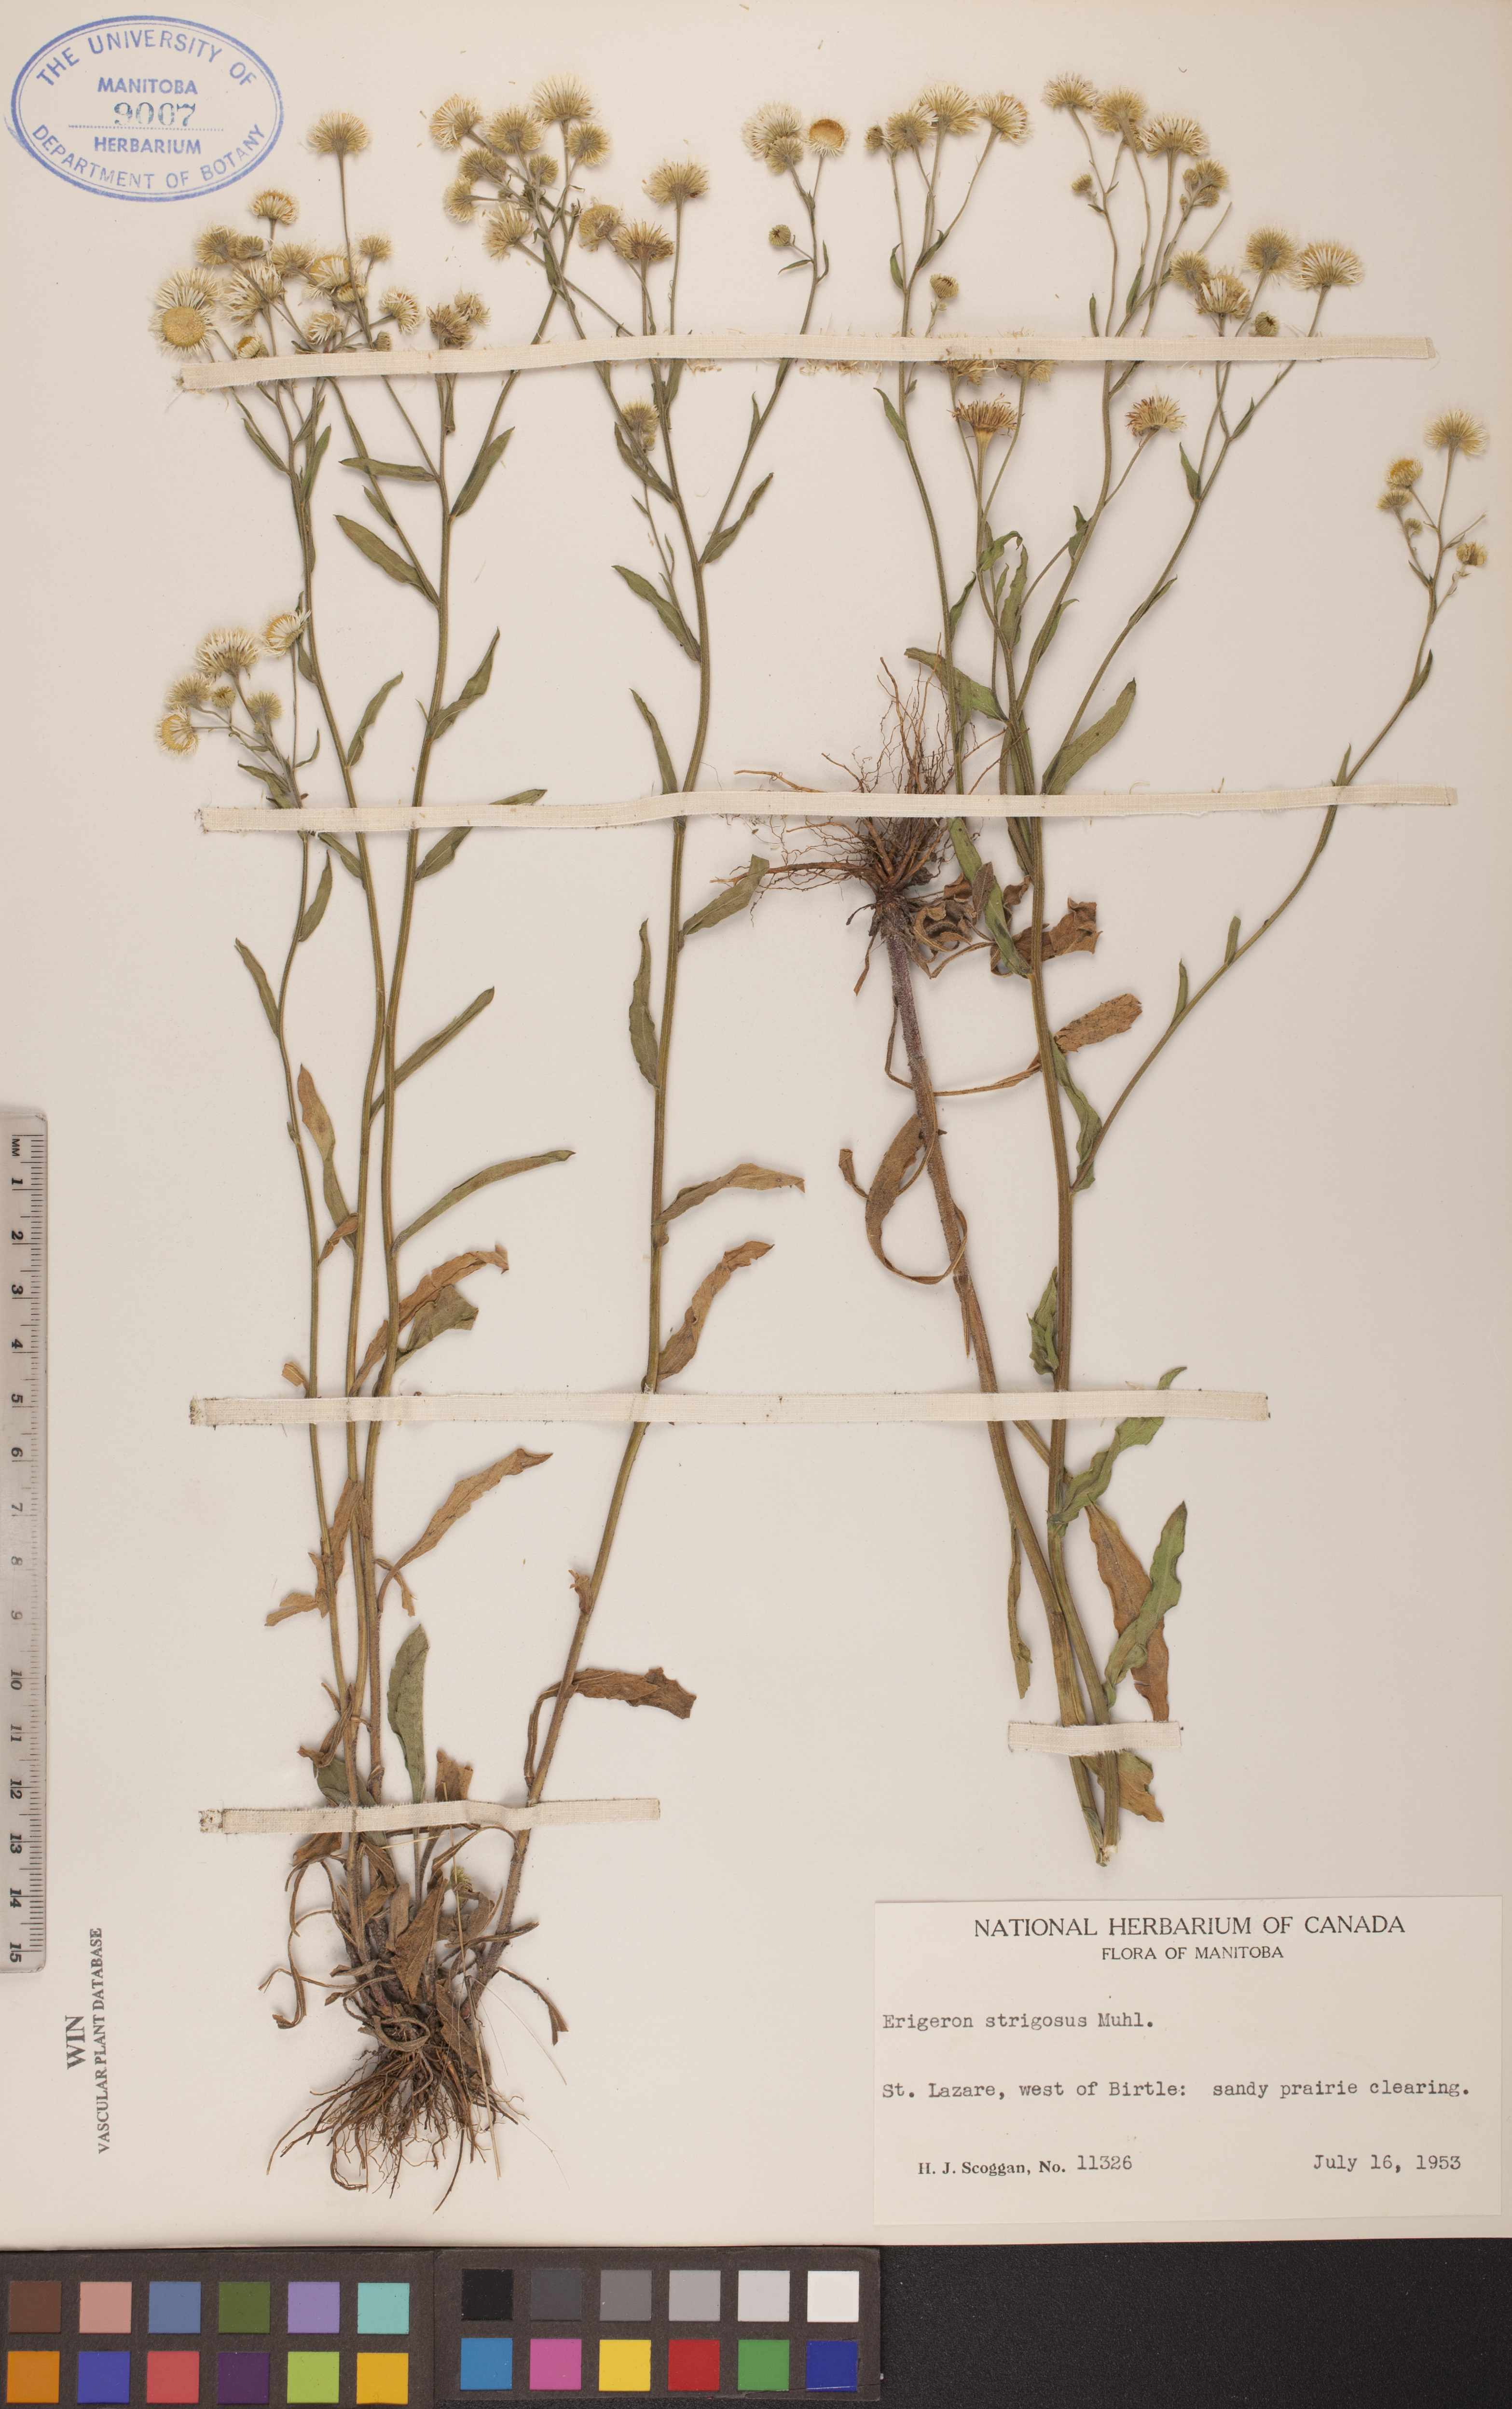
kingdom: Plantae
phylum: Tracheophyta
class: Magnoliopsida
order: Asterales
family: Asteraceae
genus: Erigeron
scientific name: Erigeron strigosus
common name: Common eastern fleabane
